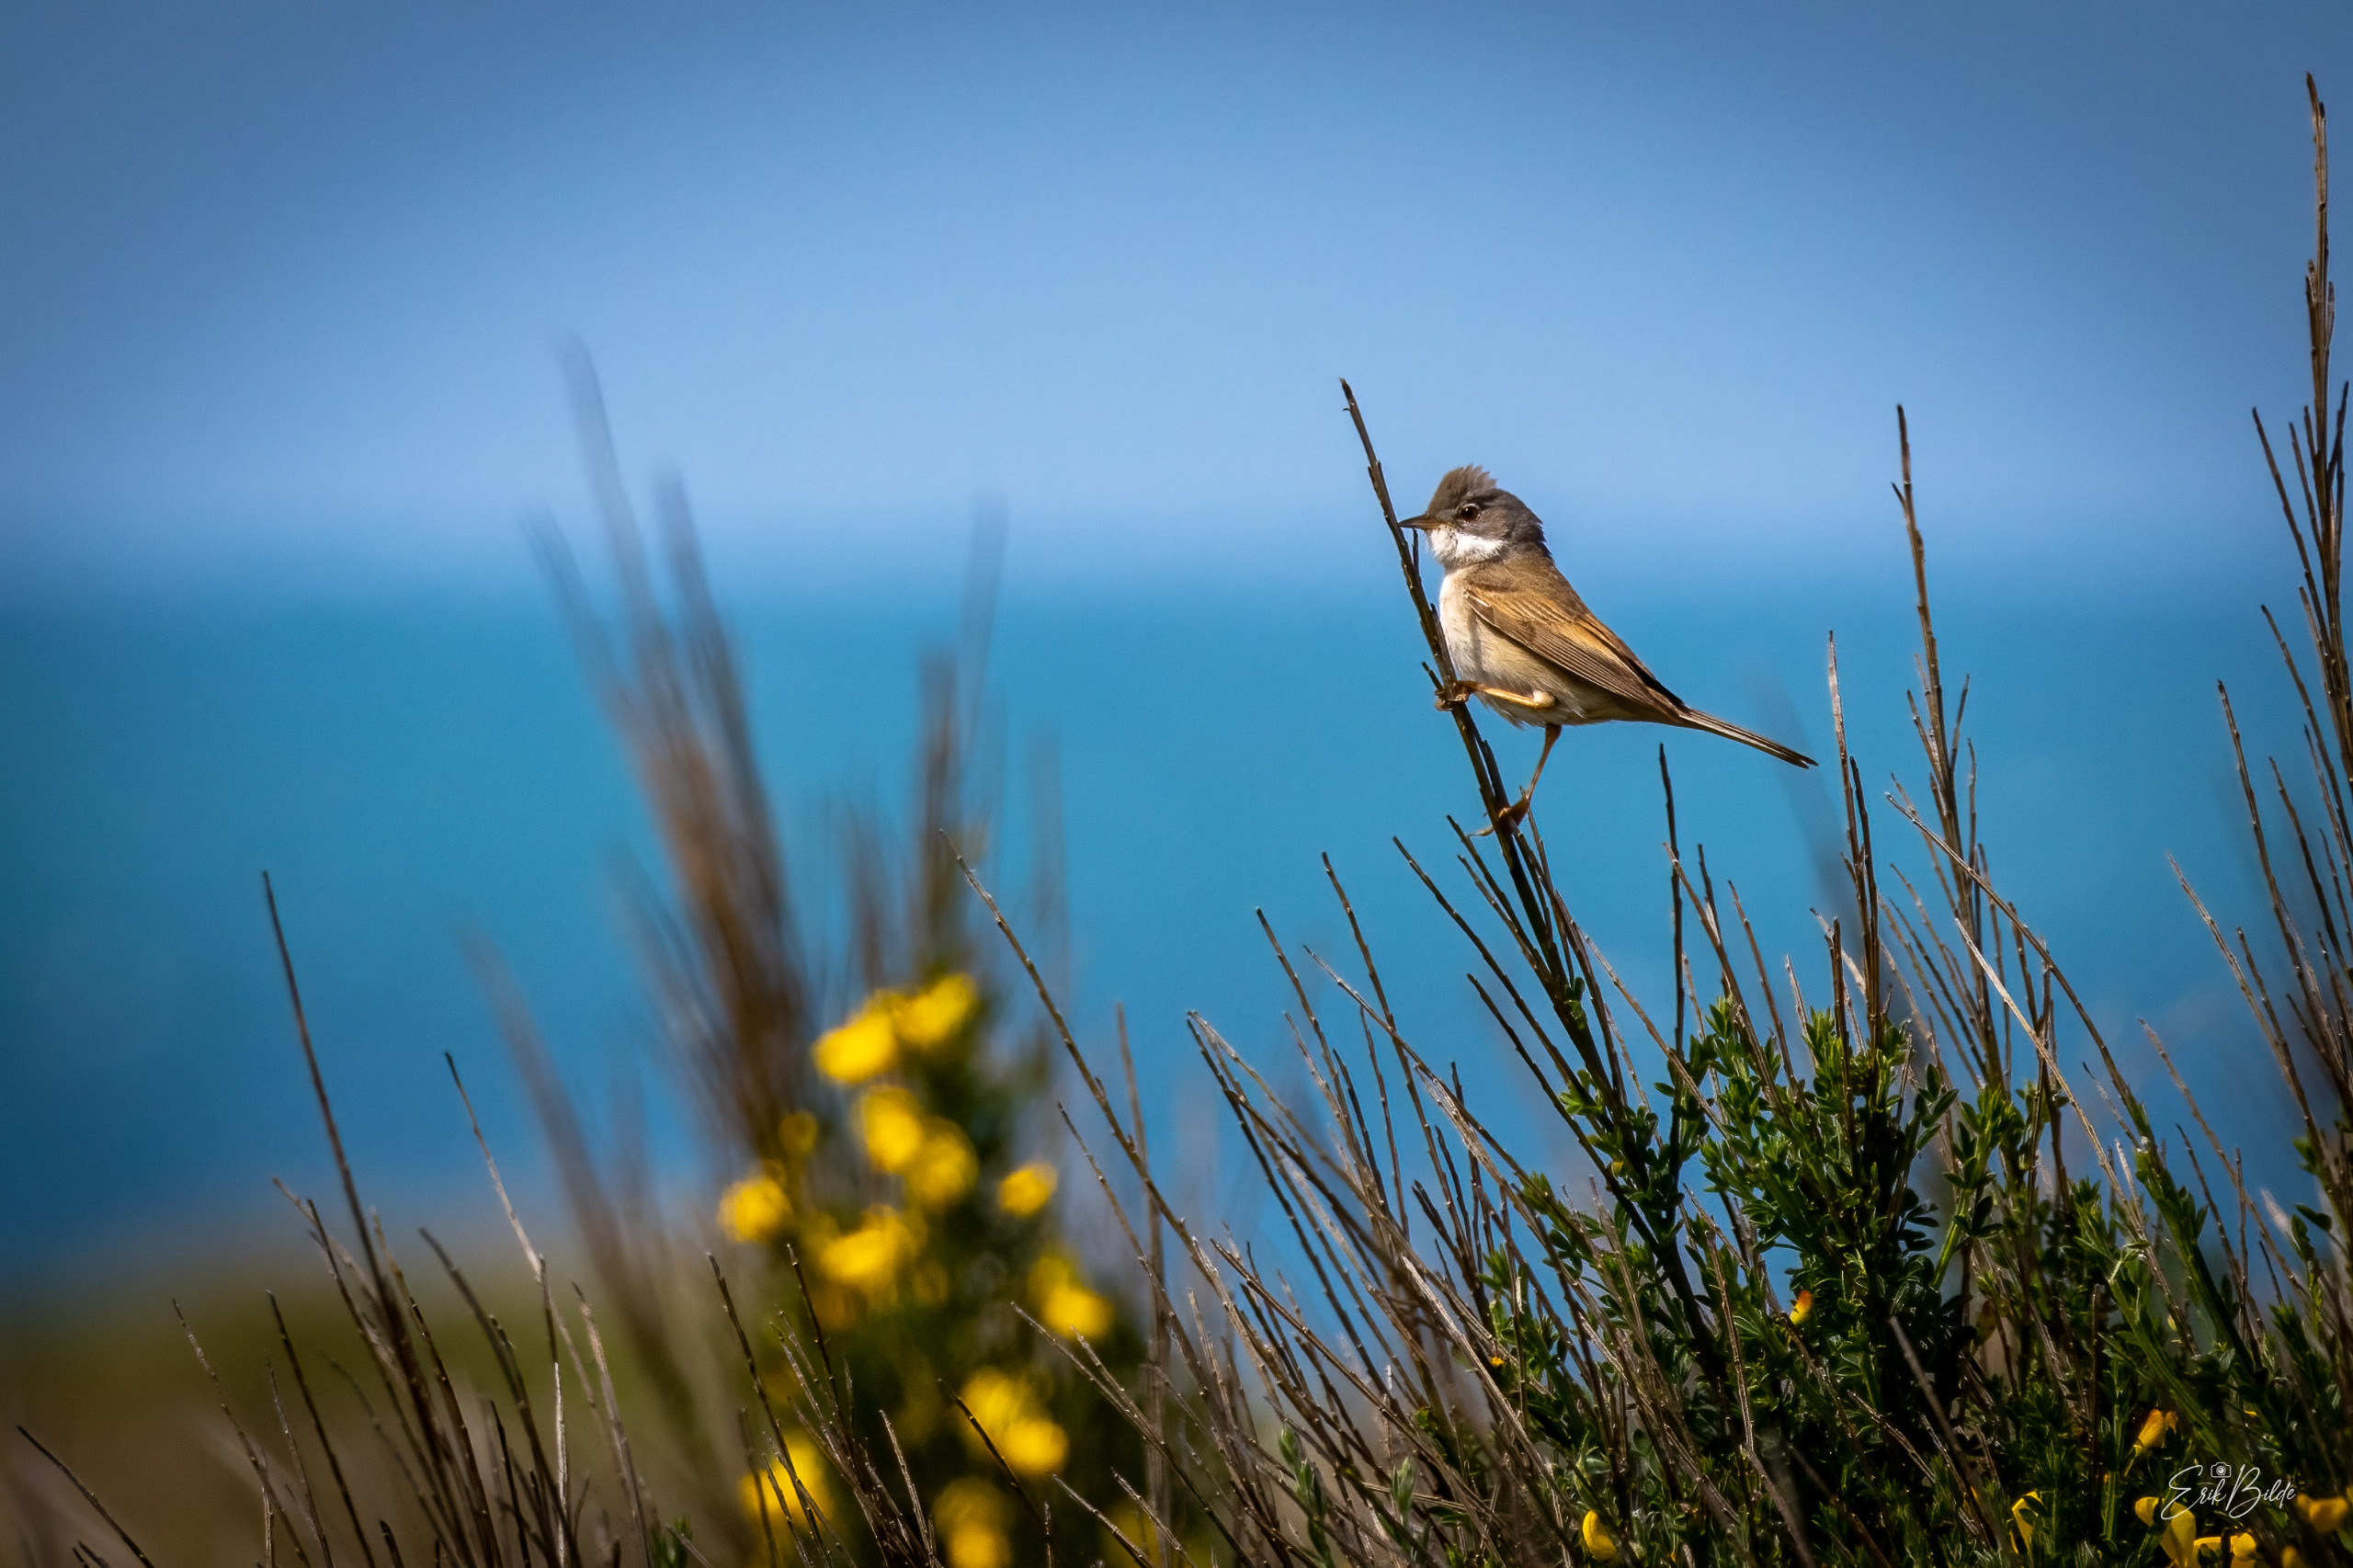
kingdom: Animalia
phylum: Chordata
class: Aves
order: Passeriformes
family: Sylviidae
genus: Sylvia
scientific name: Sylvia communis
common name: Tornsanger
